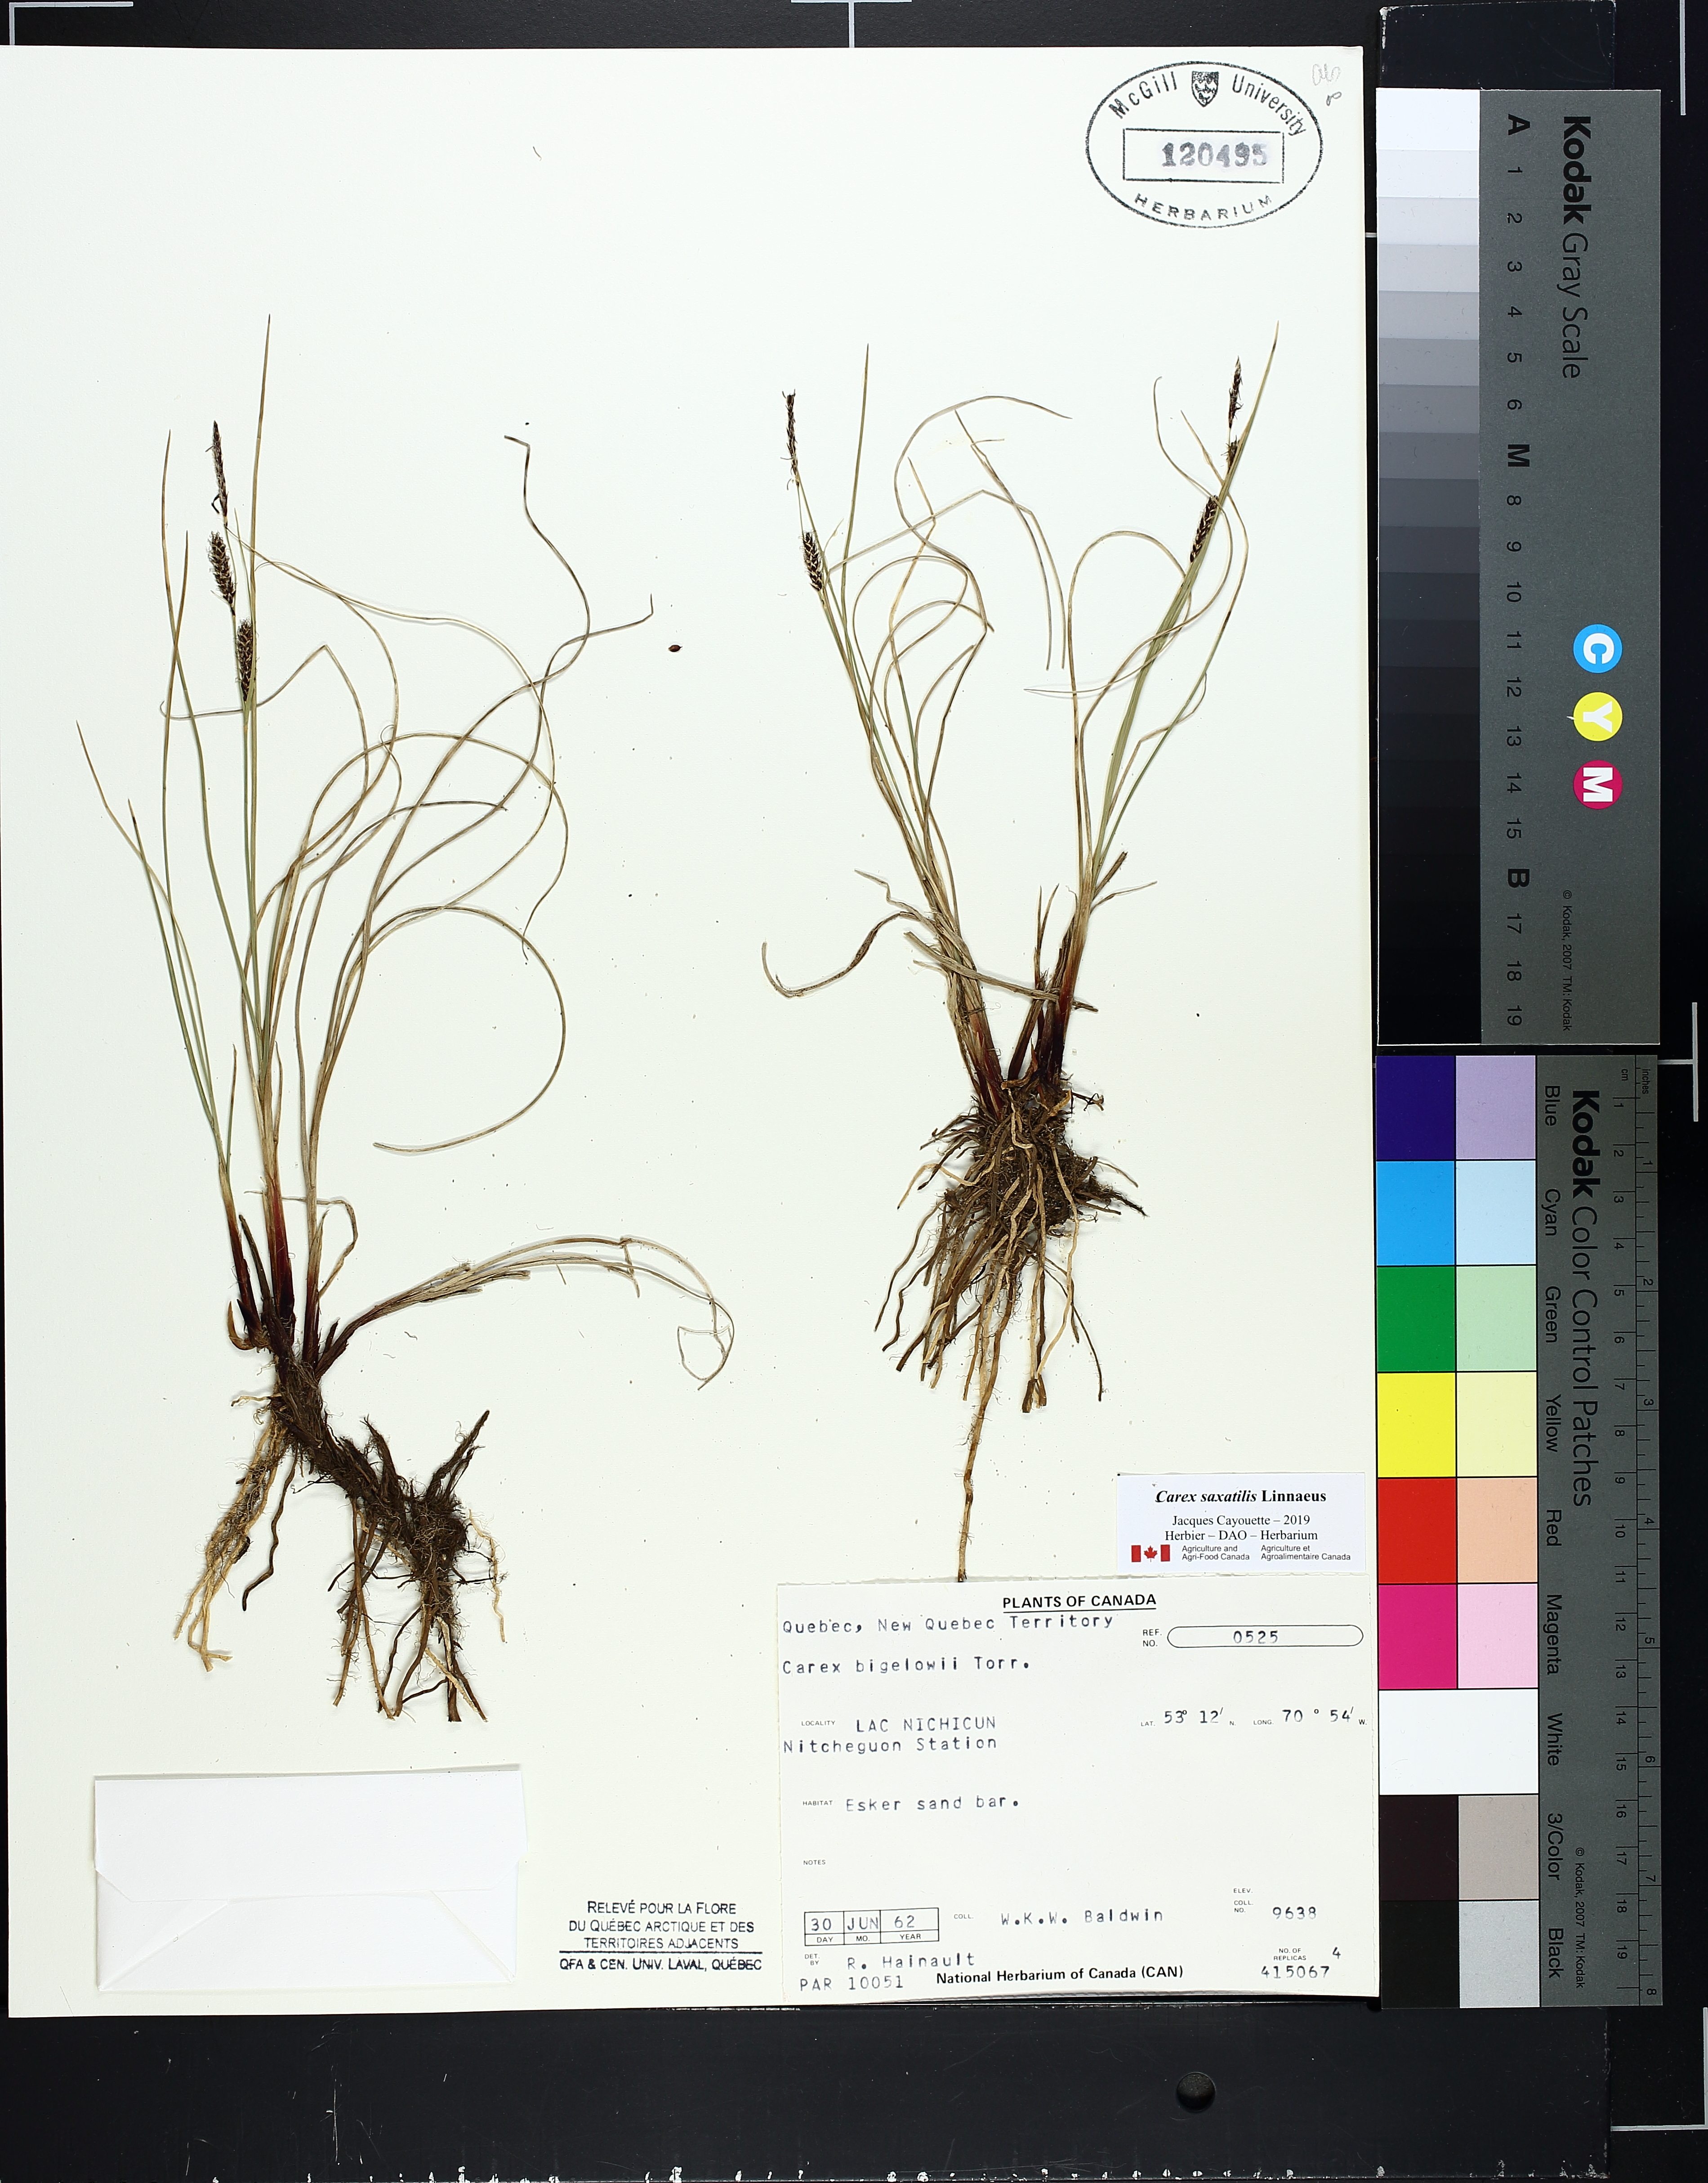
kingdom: Plantae
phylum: Tracheophyta
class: Liliopsida
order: Poales
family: Cyperaceae
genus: Carex
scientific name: Carex bigelowii
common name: Stiff sedge
